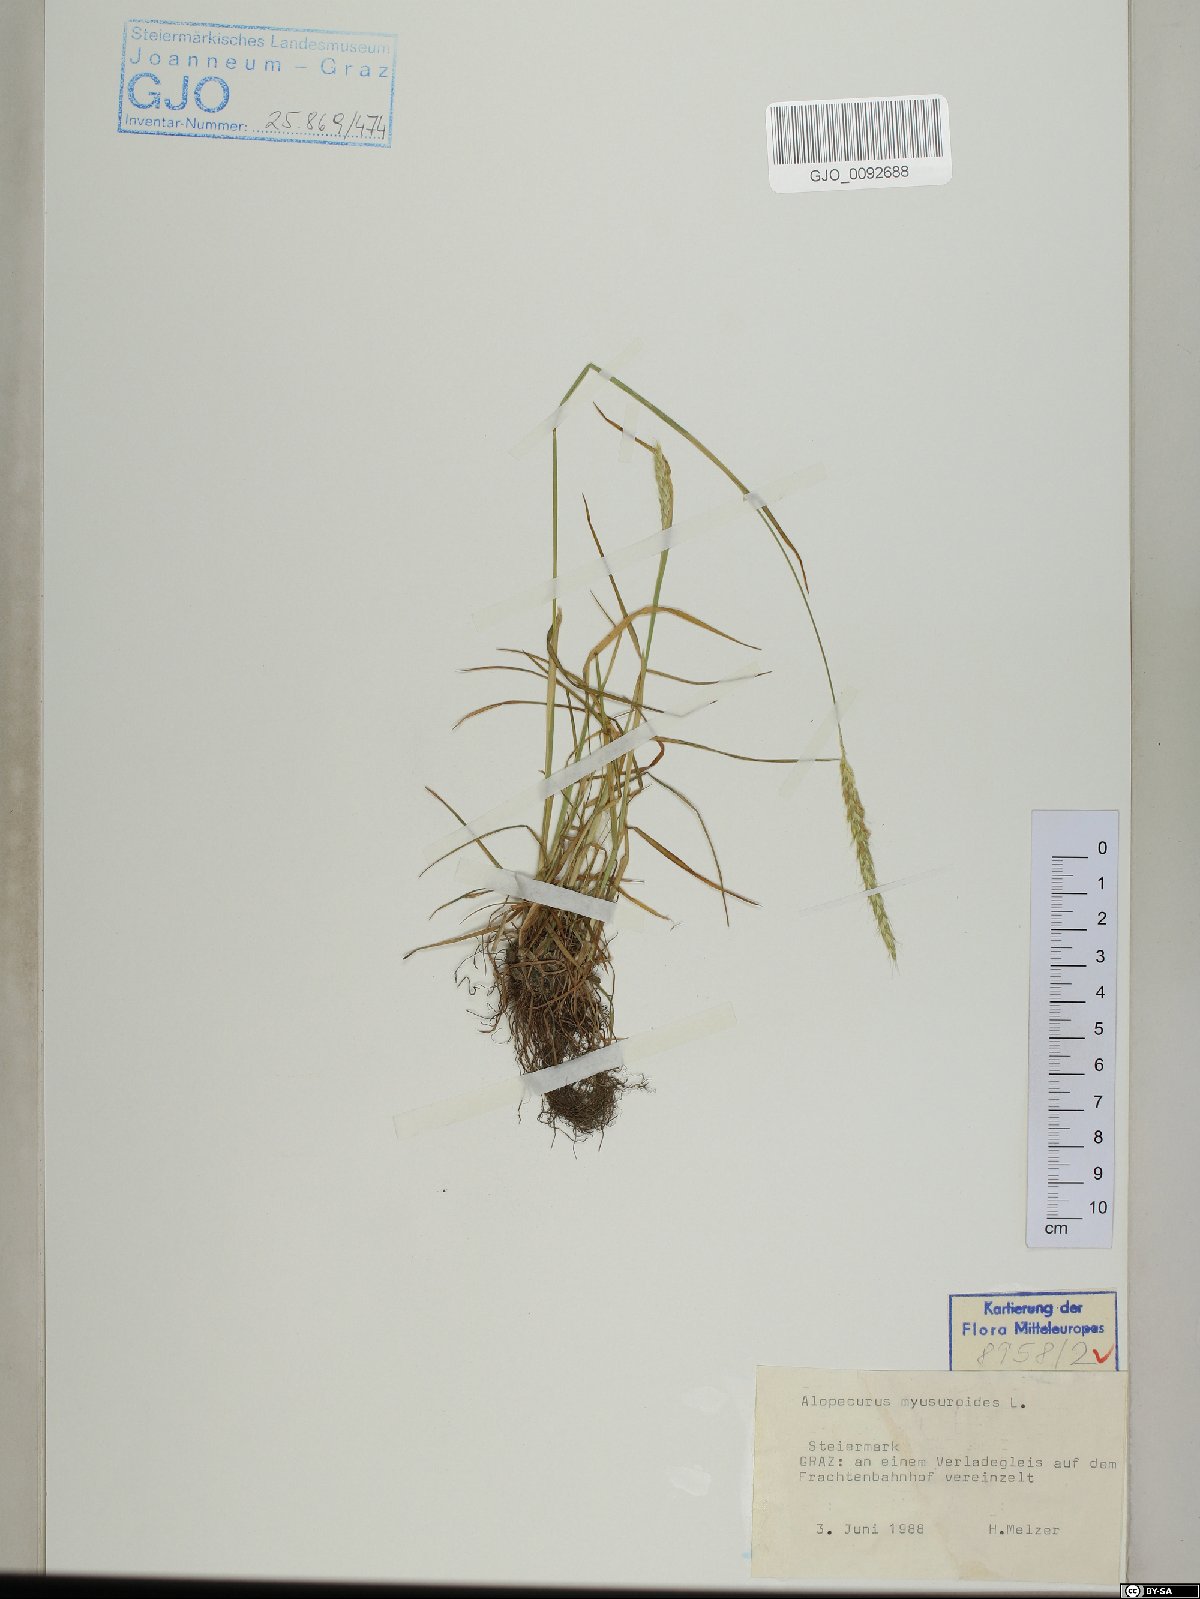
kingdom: Plantae
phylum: Tracheophyta
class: Liliopsida
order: Poales
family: Poaceae
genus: Alopecurus
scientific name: Alopecurus myosuroides
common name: Black-grass
